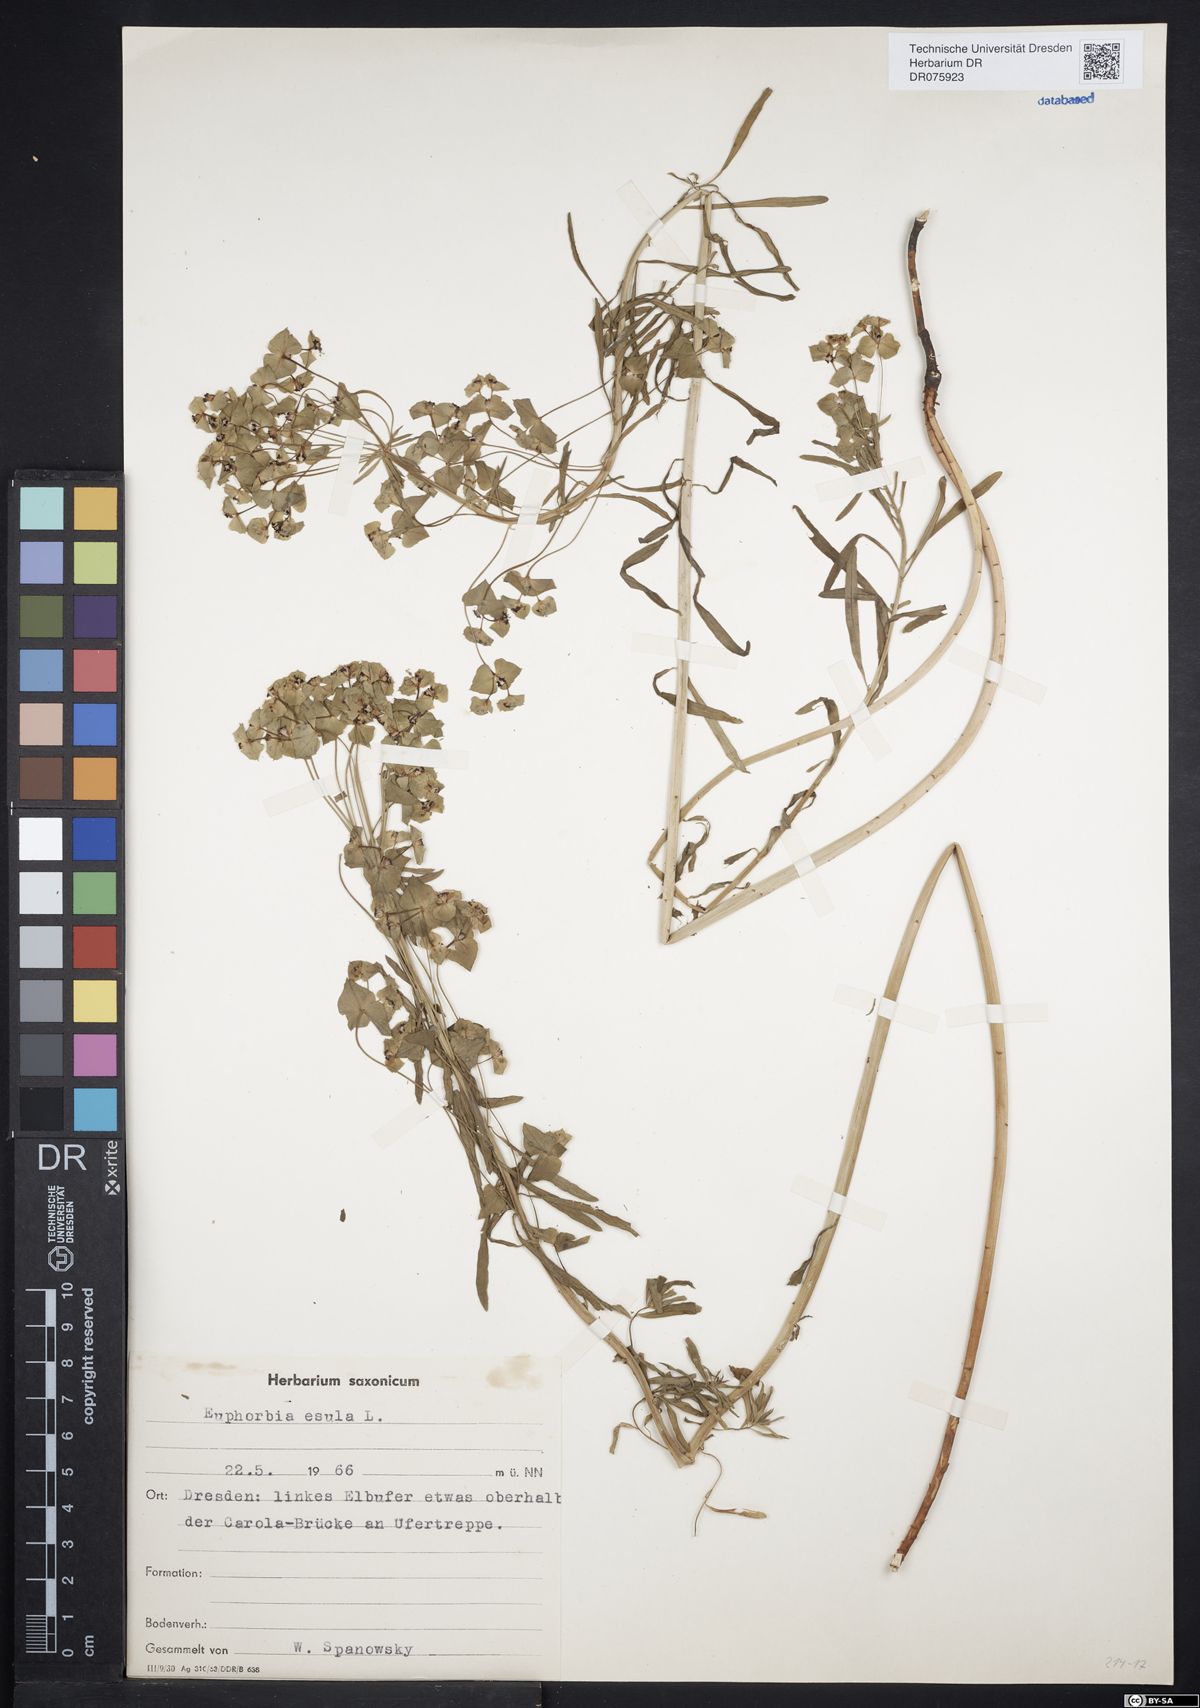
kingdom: Plantae
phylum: Tracheophyta
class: Magnoliopsida
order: Malpighiales
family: Euphorbiaceae
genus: Euphorbia
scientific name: Euphorbia esula
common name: Leafy spurge
